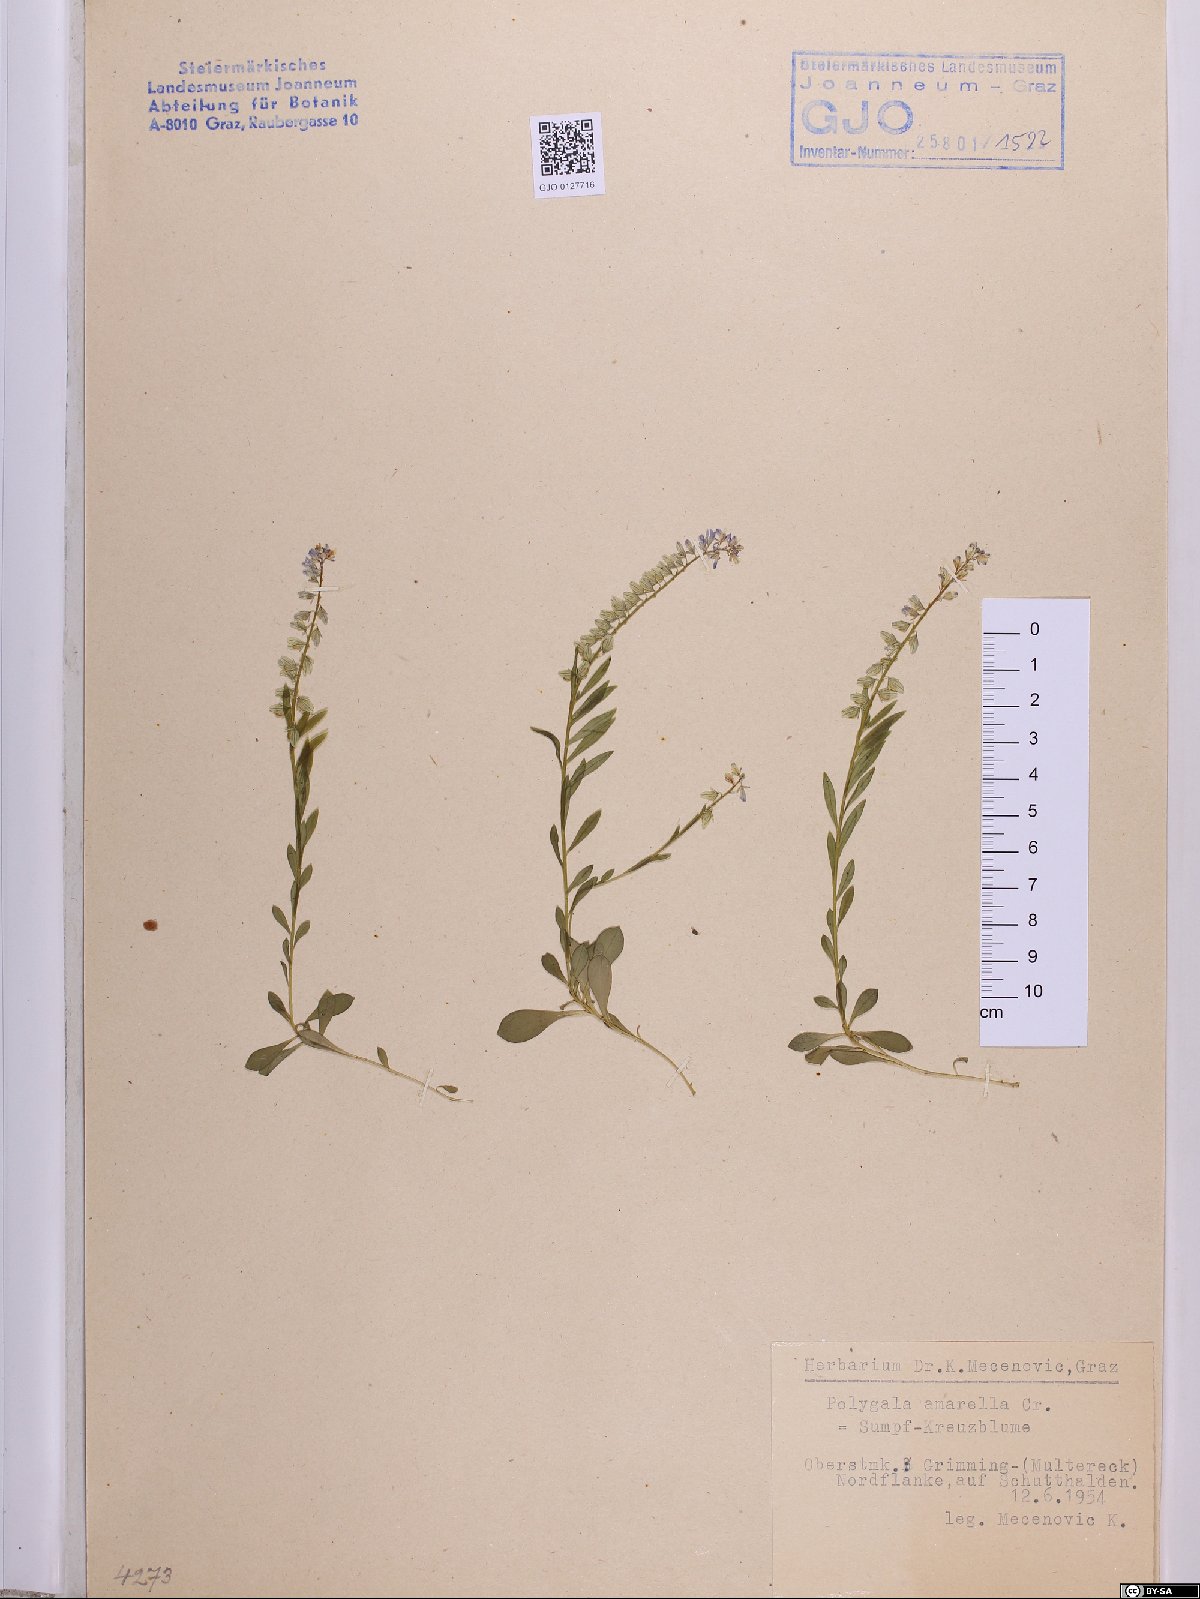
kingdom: Plantae
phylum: Tracheophyta
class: Magnoliopsida
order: Fabales
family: Polygalaceae
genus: Polygala
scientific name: Polygala amarella
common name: Dwarf milkwort
